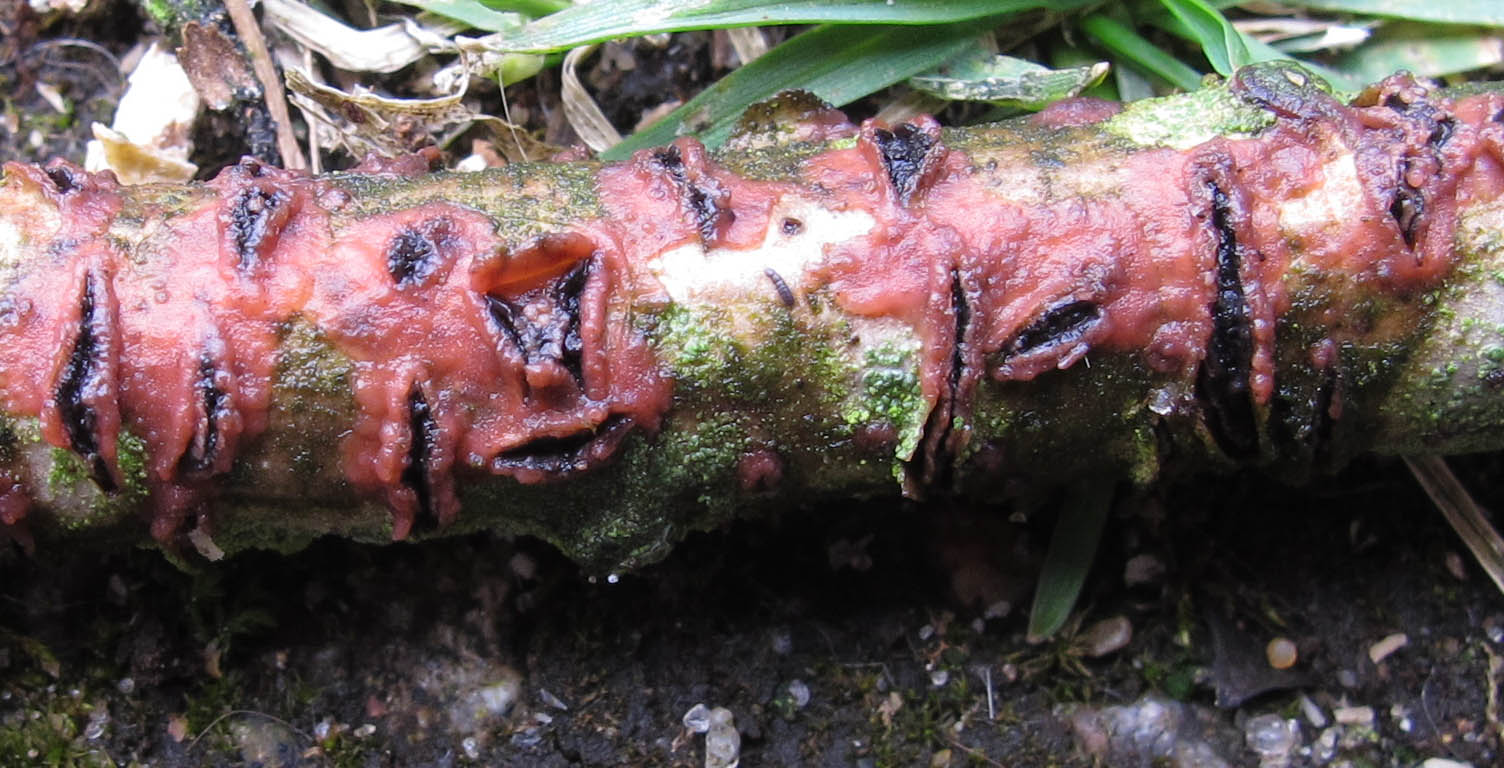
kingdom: Fungi
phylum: Basidiomycota
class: Agaricomycetes
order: Corticiales
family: Corticiaceae
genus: Marchandiomyces
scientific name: Marchandiomyces aurantioroseus
